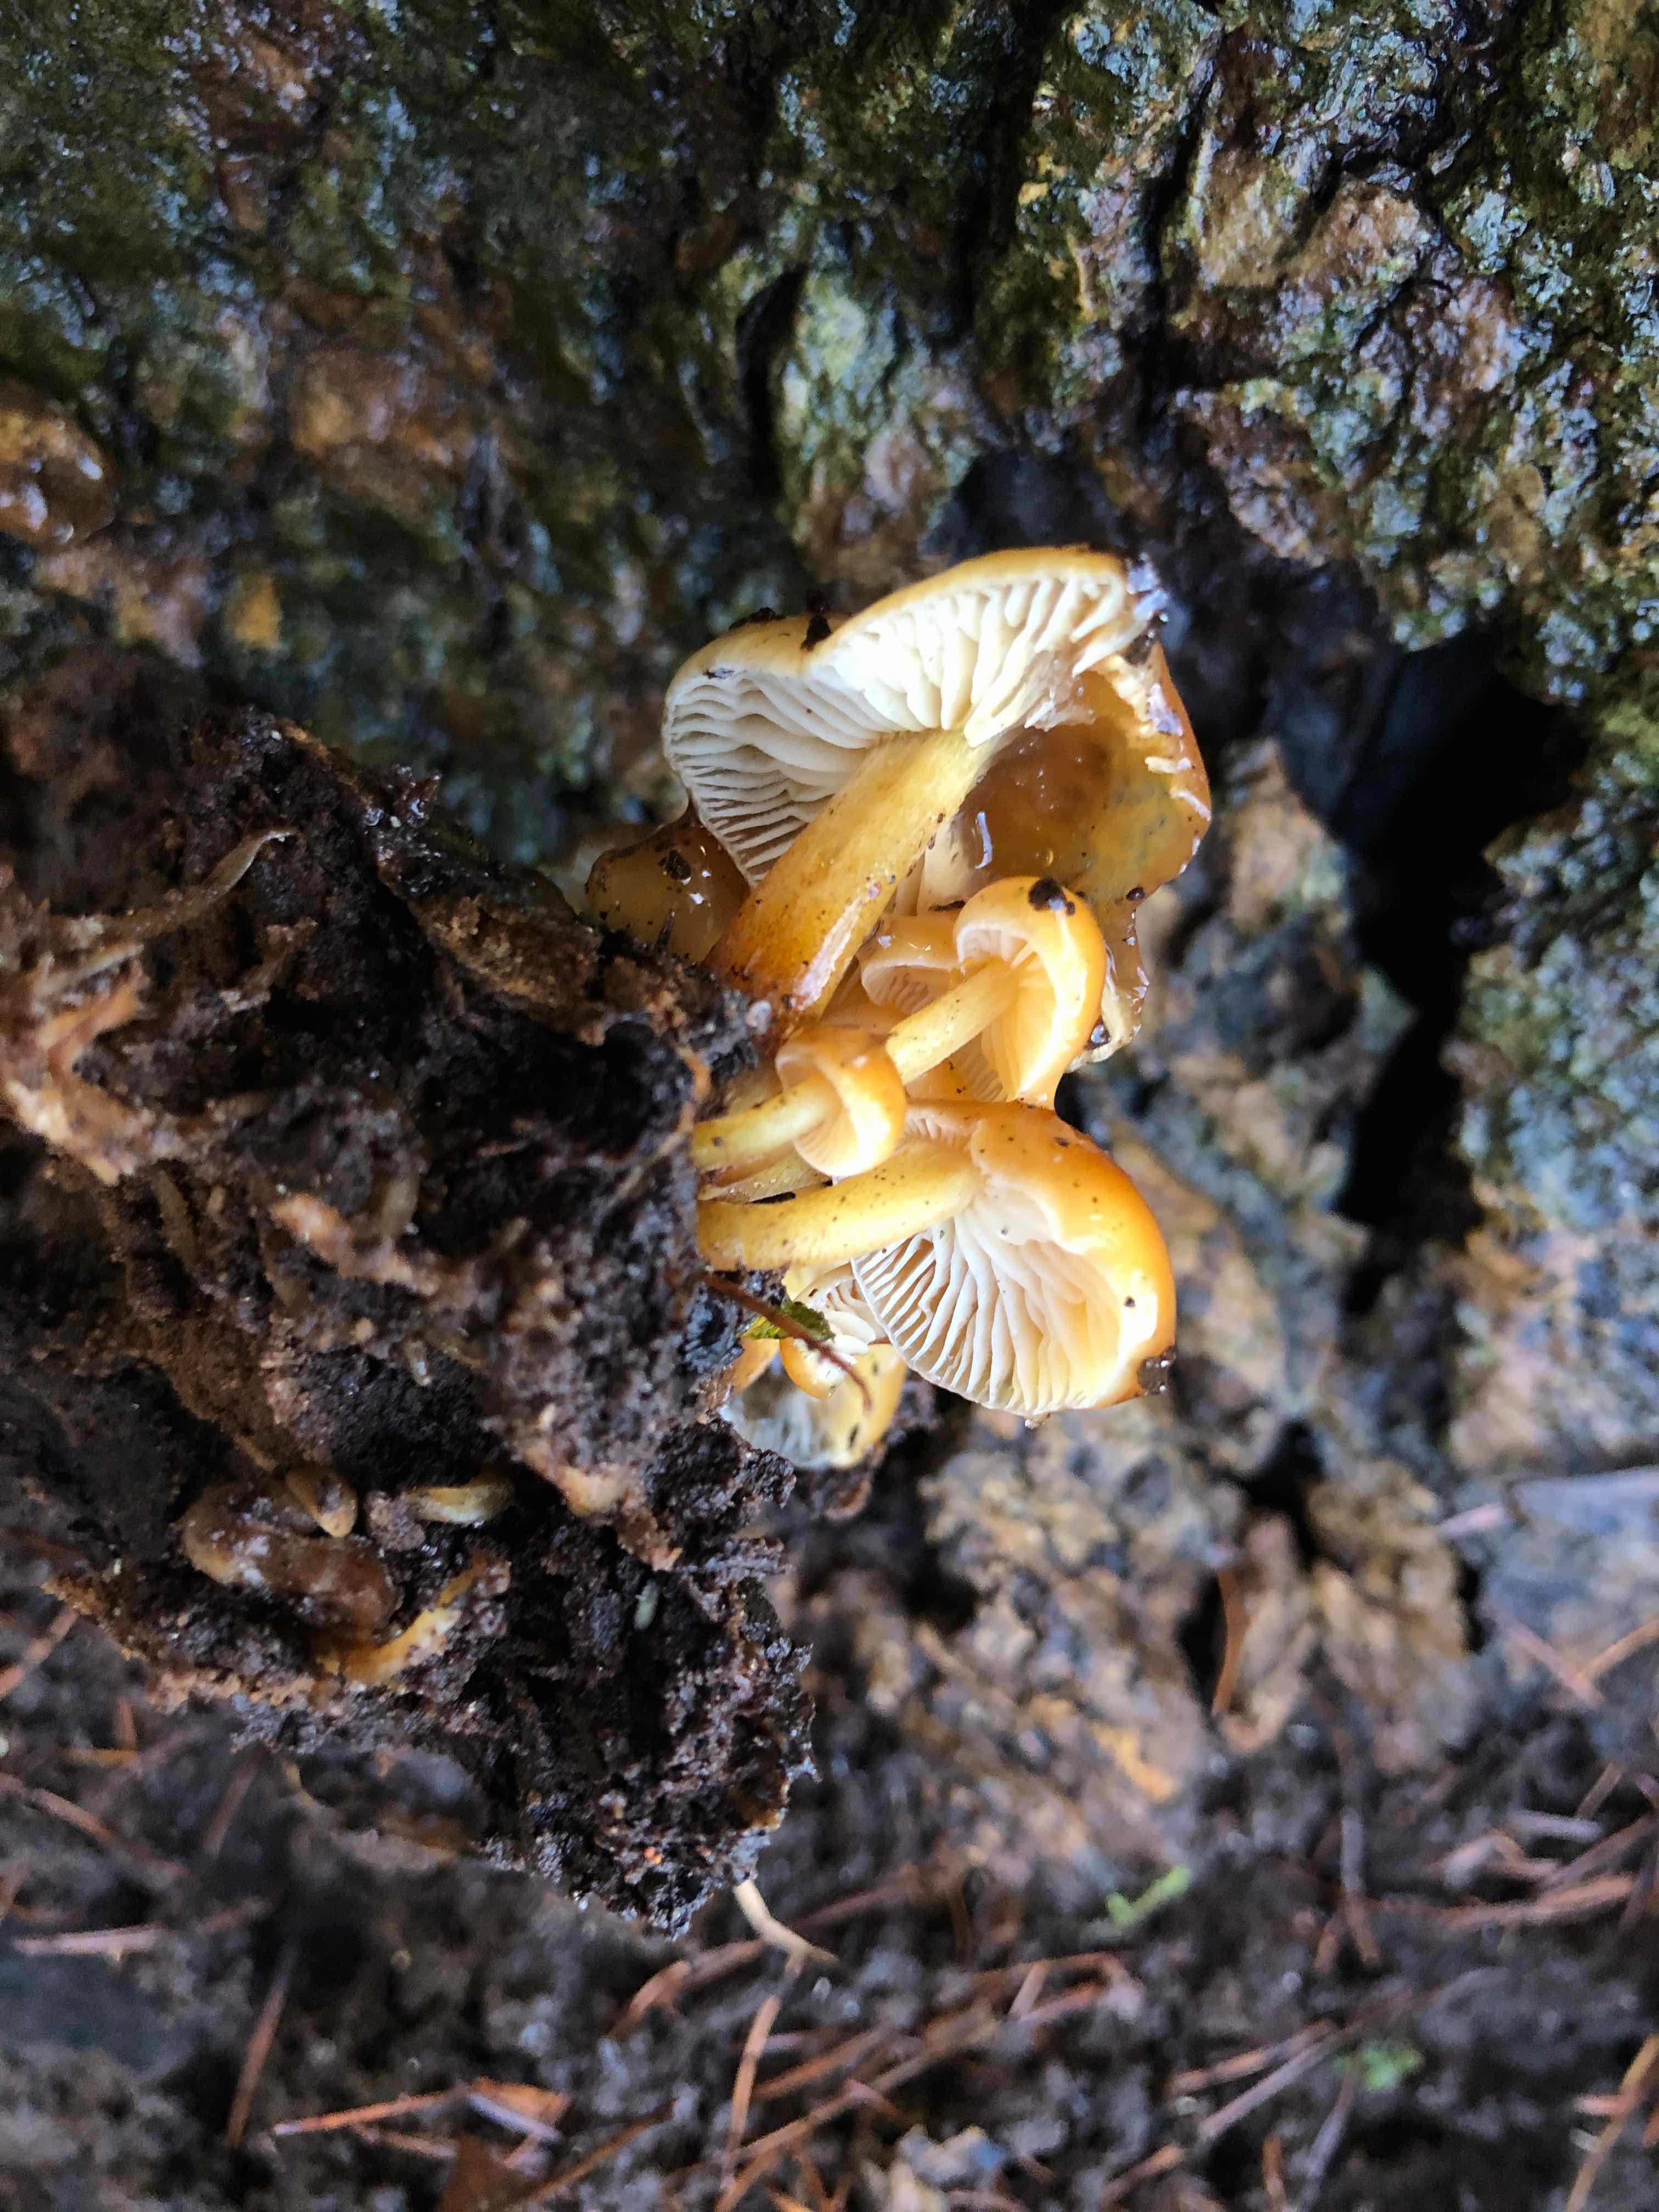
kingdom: Fungi
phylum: Basidiomycota
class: Agaricomycetes
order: Agaricales
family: Physalacriaceae
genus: Flammulina
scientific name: Flammulina velutipes
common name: gul fløjlsfod
